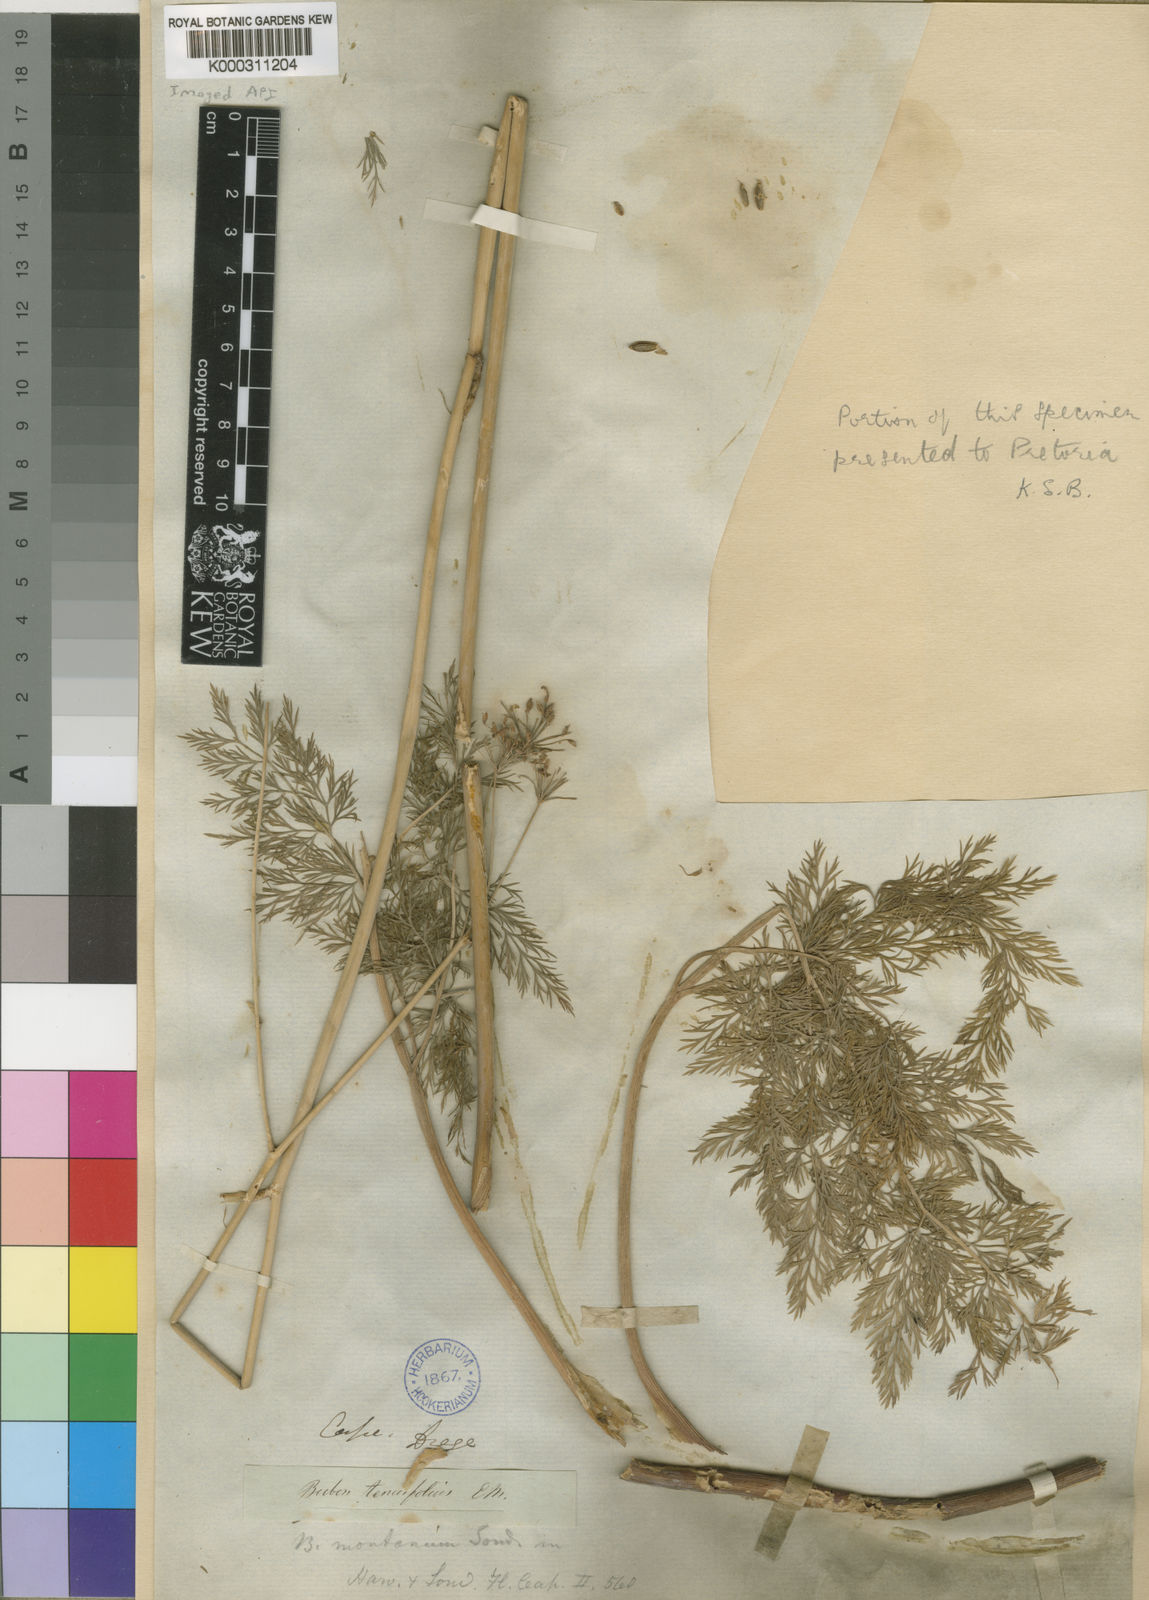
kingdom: Plantae
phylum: Tracheophyta
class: Magnoliopsida
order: Apiales
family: Apiaceae
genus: Notobubon
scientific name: Notobubon sonderi
